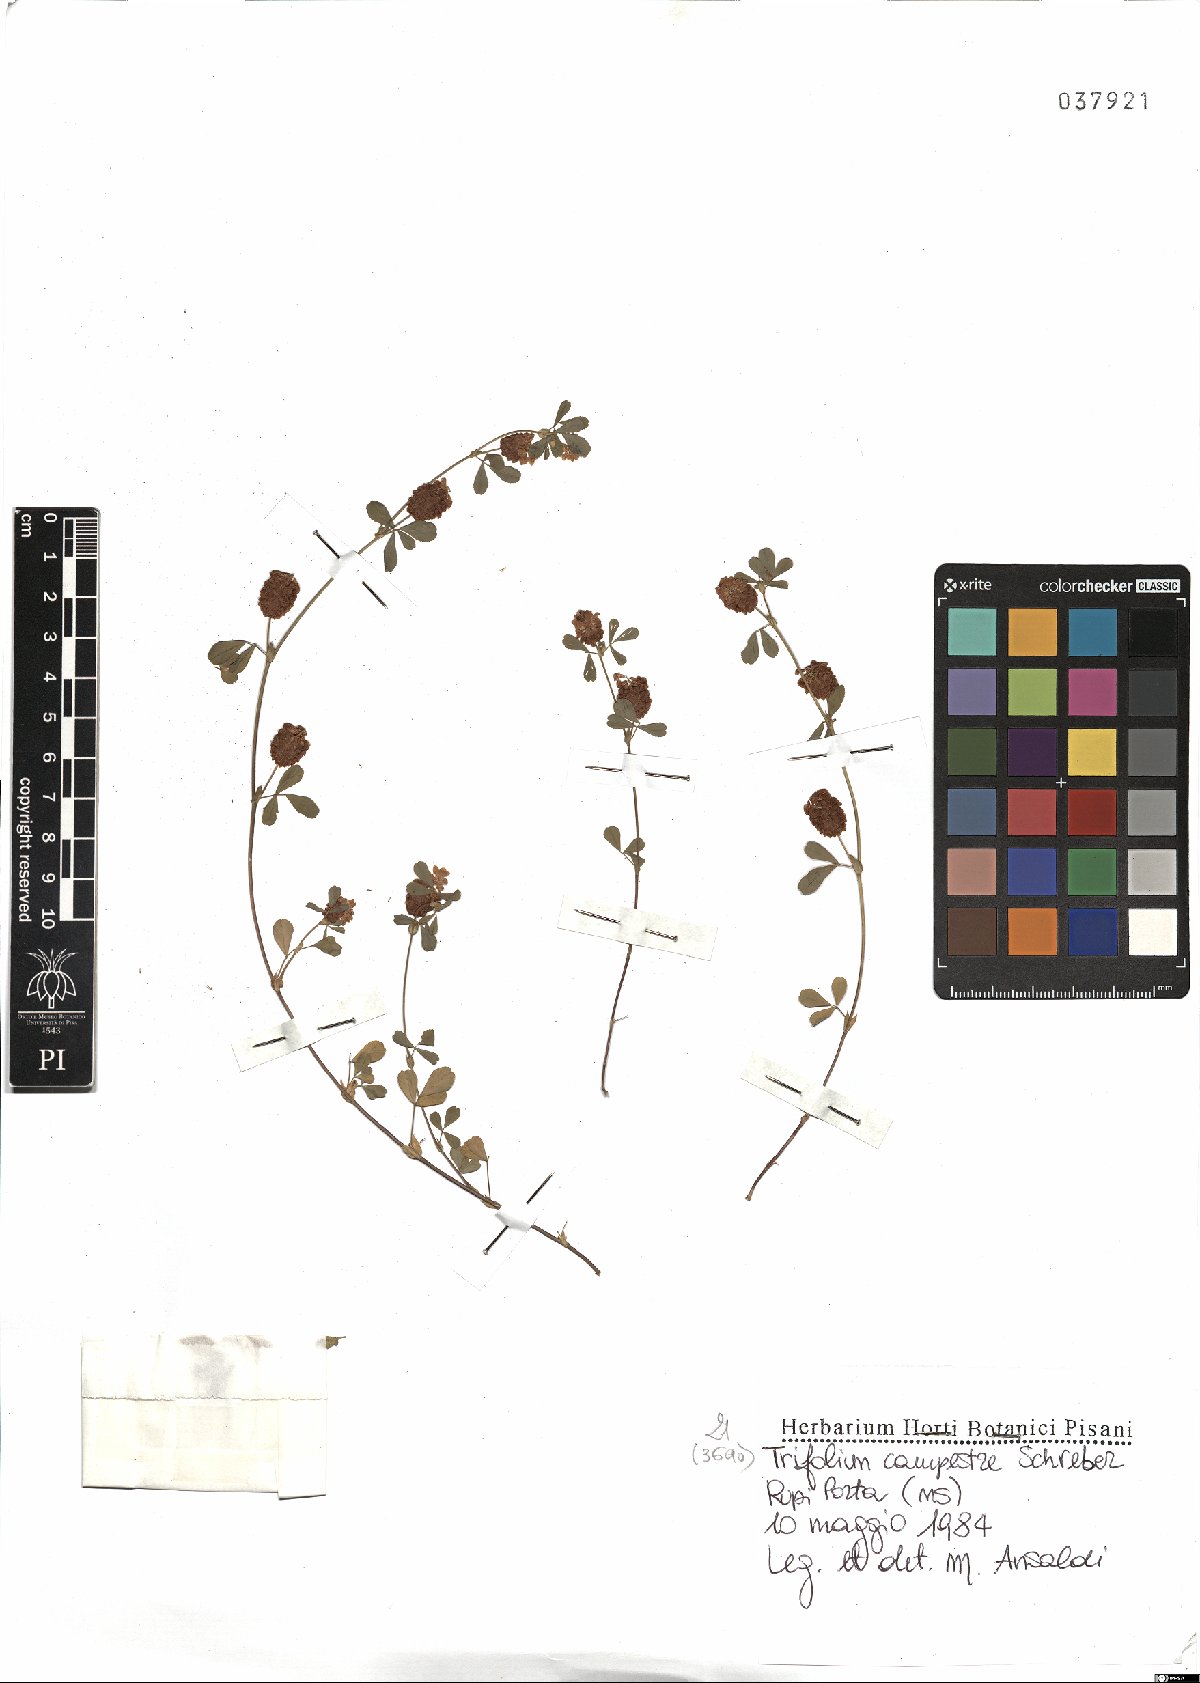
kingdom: Plantae
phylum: Tracheophyta
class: Magnoliopsida
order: Fabales
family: Fabaceae
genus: Trifolium
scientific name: Trifolium campestre
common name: Field clover
